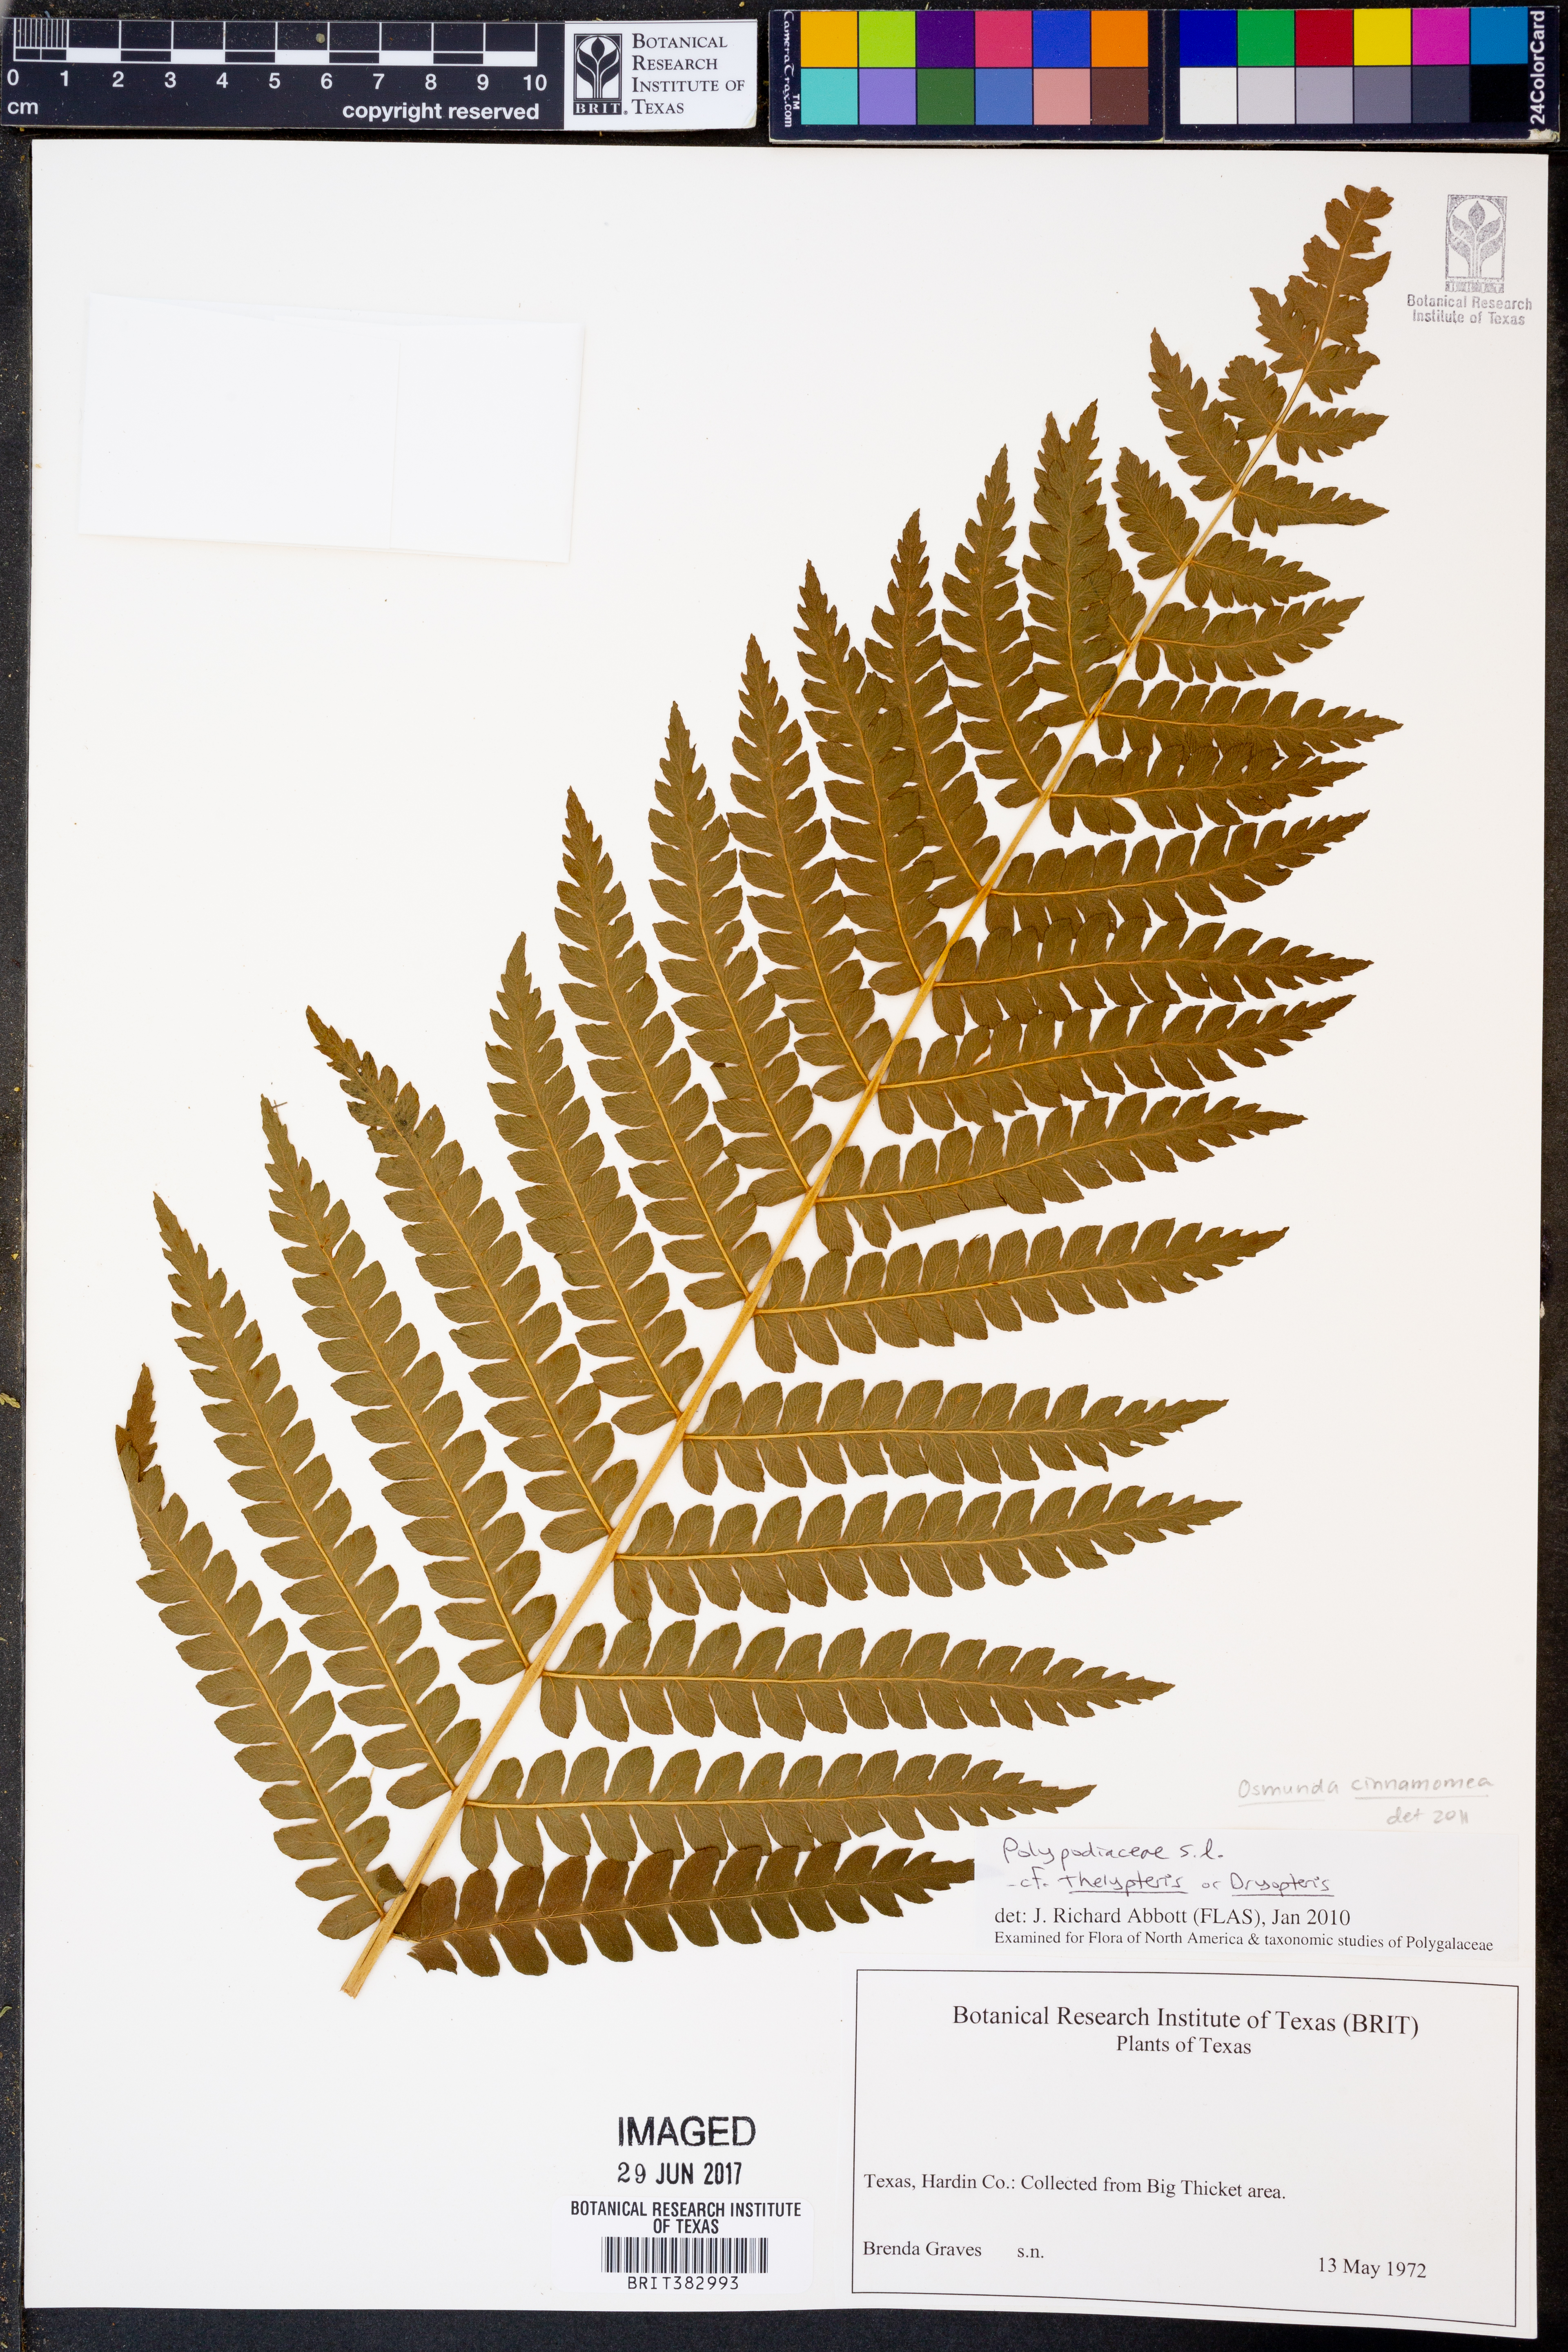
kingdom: Plantae
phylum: Tracheophyta
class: Polypodiopsida
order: Osmundales
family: Osmundaceae
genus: Osmundastrum
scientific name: Osmundastrum cinnamomeum
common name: Cinnamon fern
